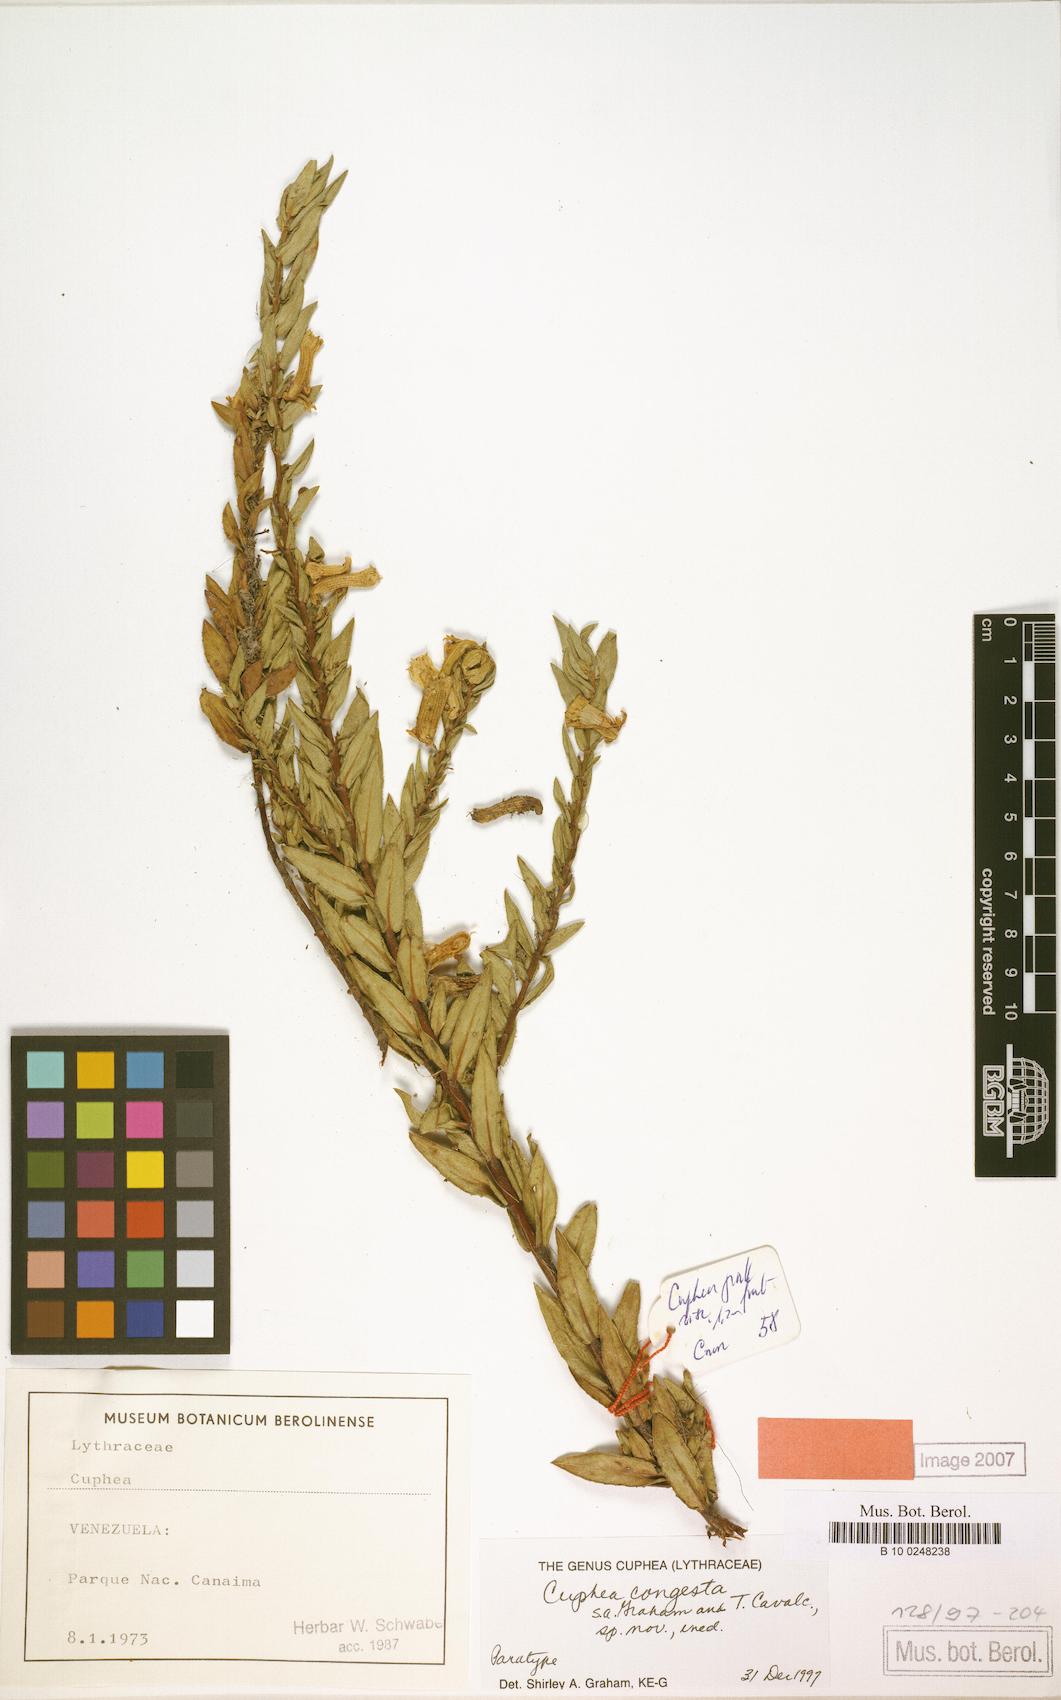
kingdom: Plantae
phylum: Tracheophyta
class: Magnoliopsida
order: Myrtales
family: Lythraceae
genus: Cuphea
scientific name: Cuphea congesta
